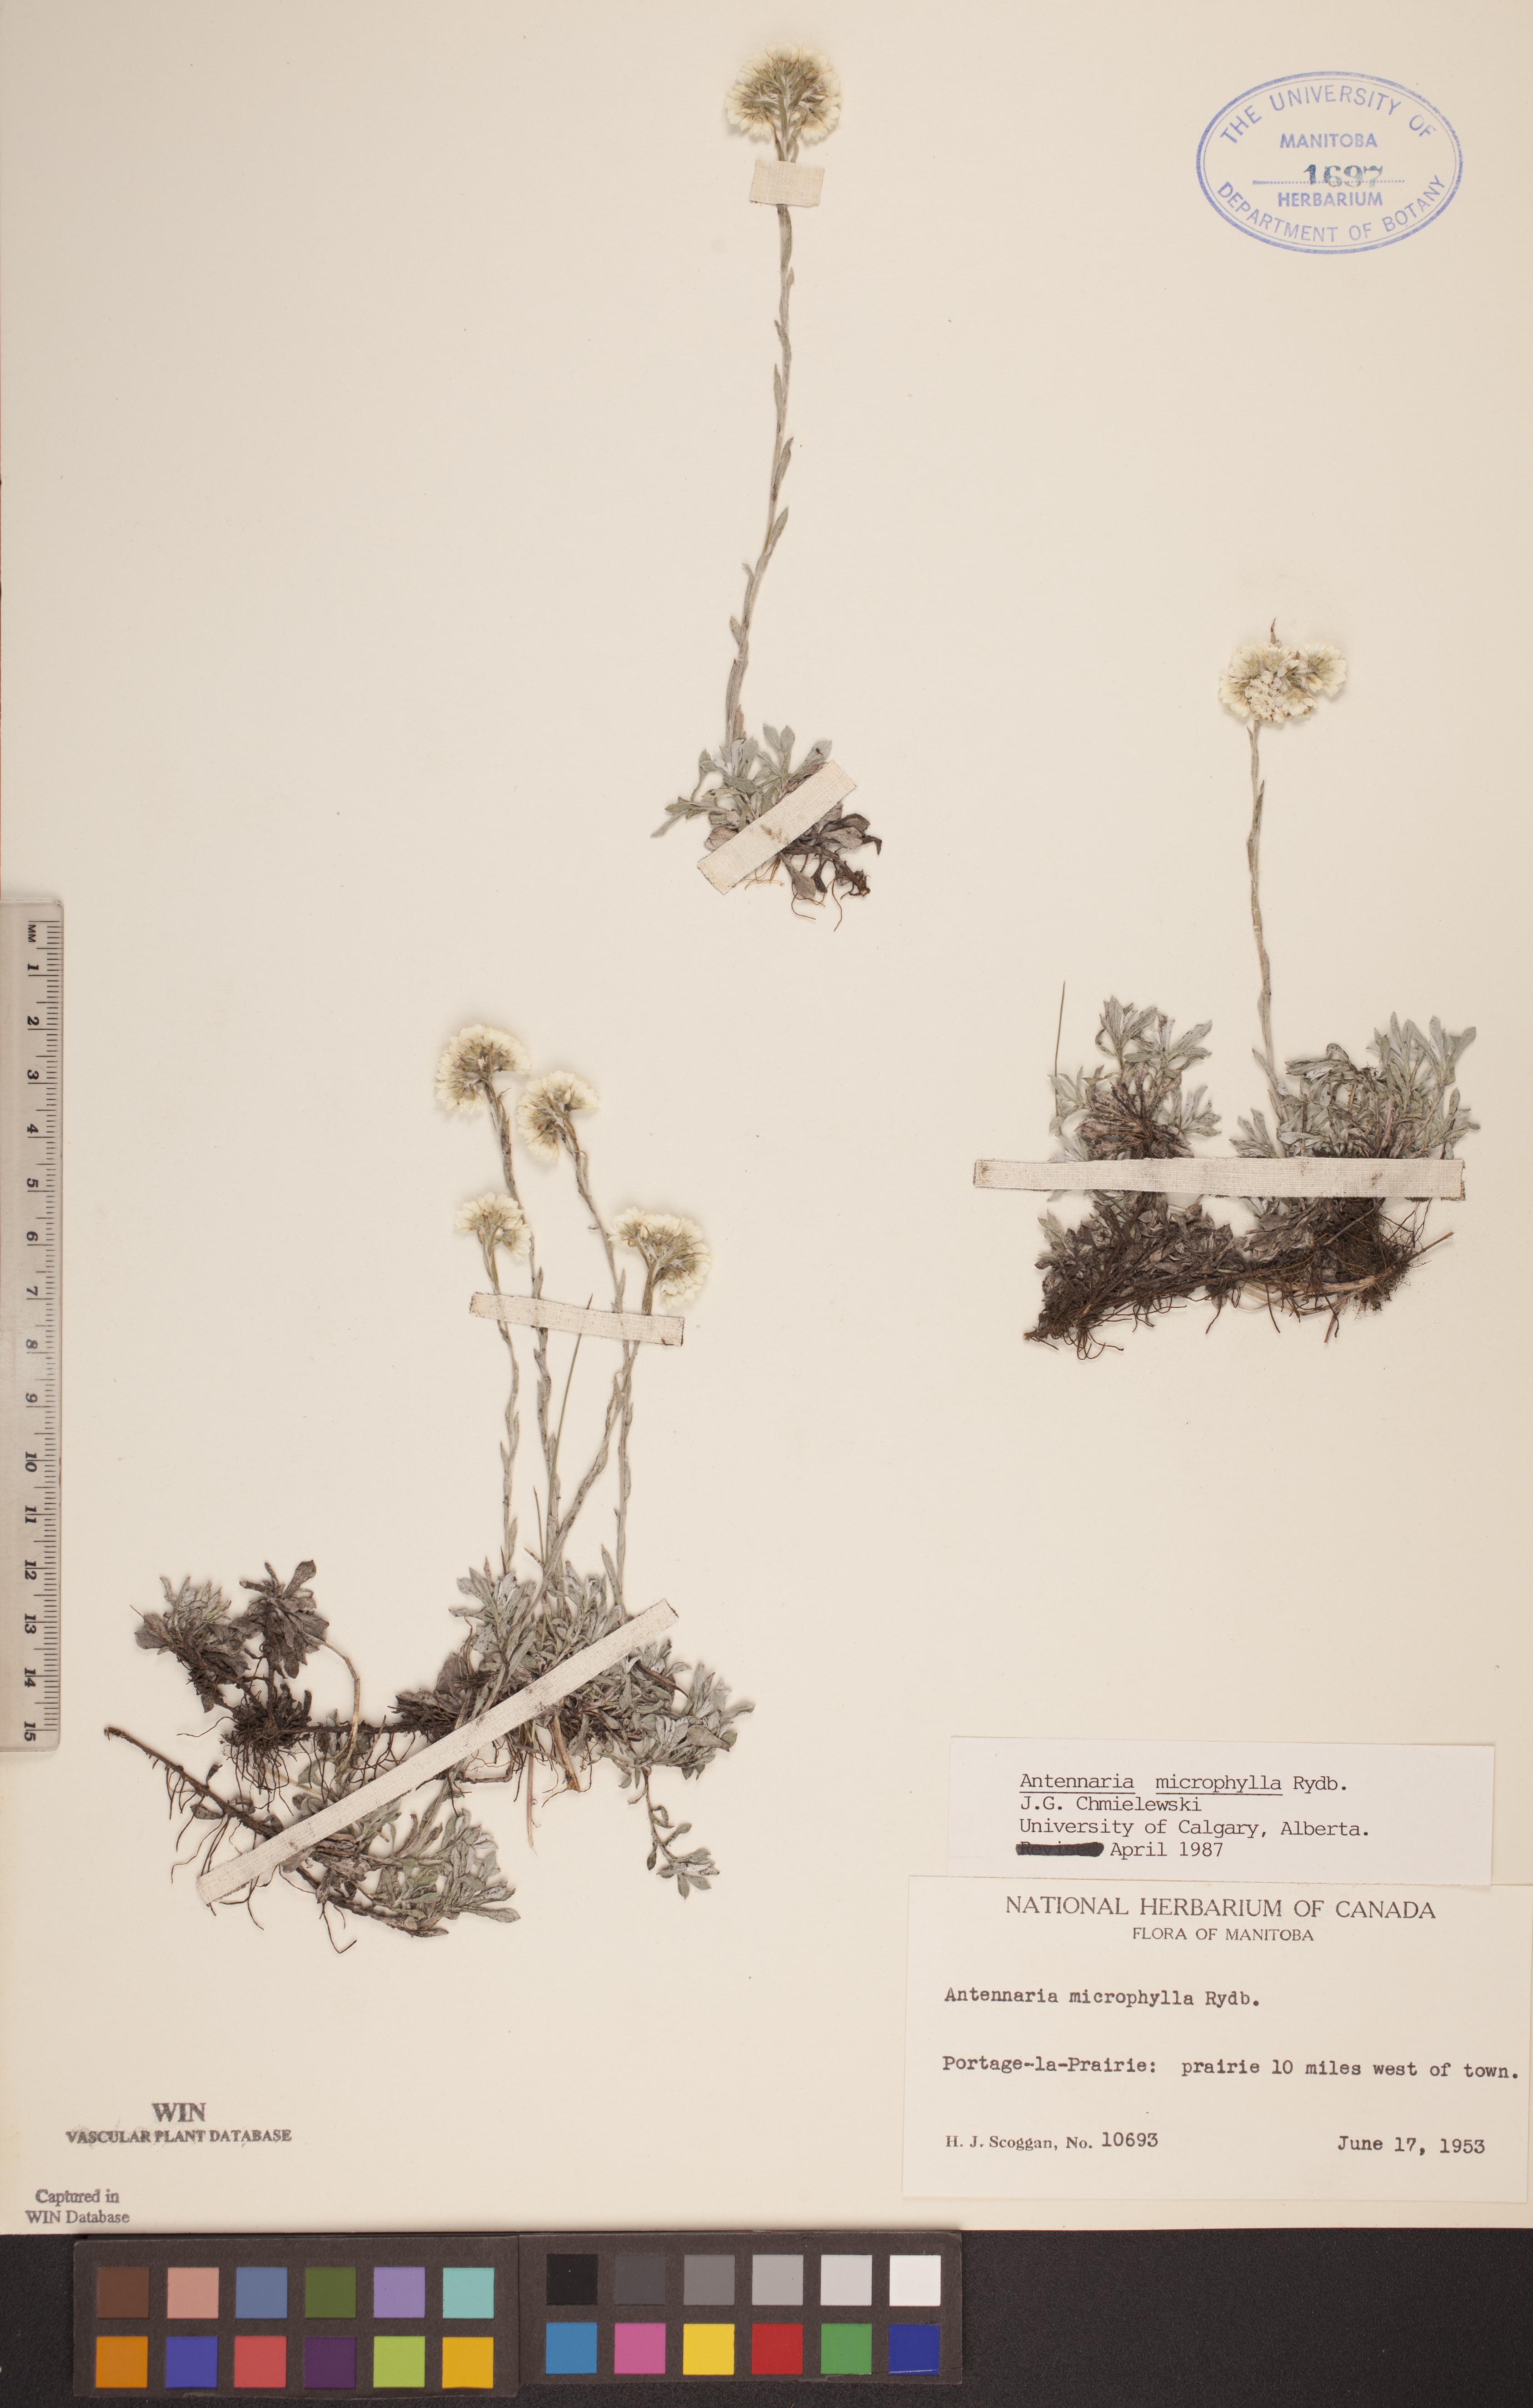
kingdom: Plantae
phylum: Tracheophyta
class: Magnoliopsida
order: Asterales
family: Asteraceae
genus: Antennaria
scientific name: Antennaria microphylla
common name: Littleleaf pussytoes
